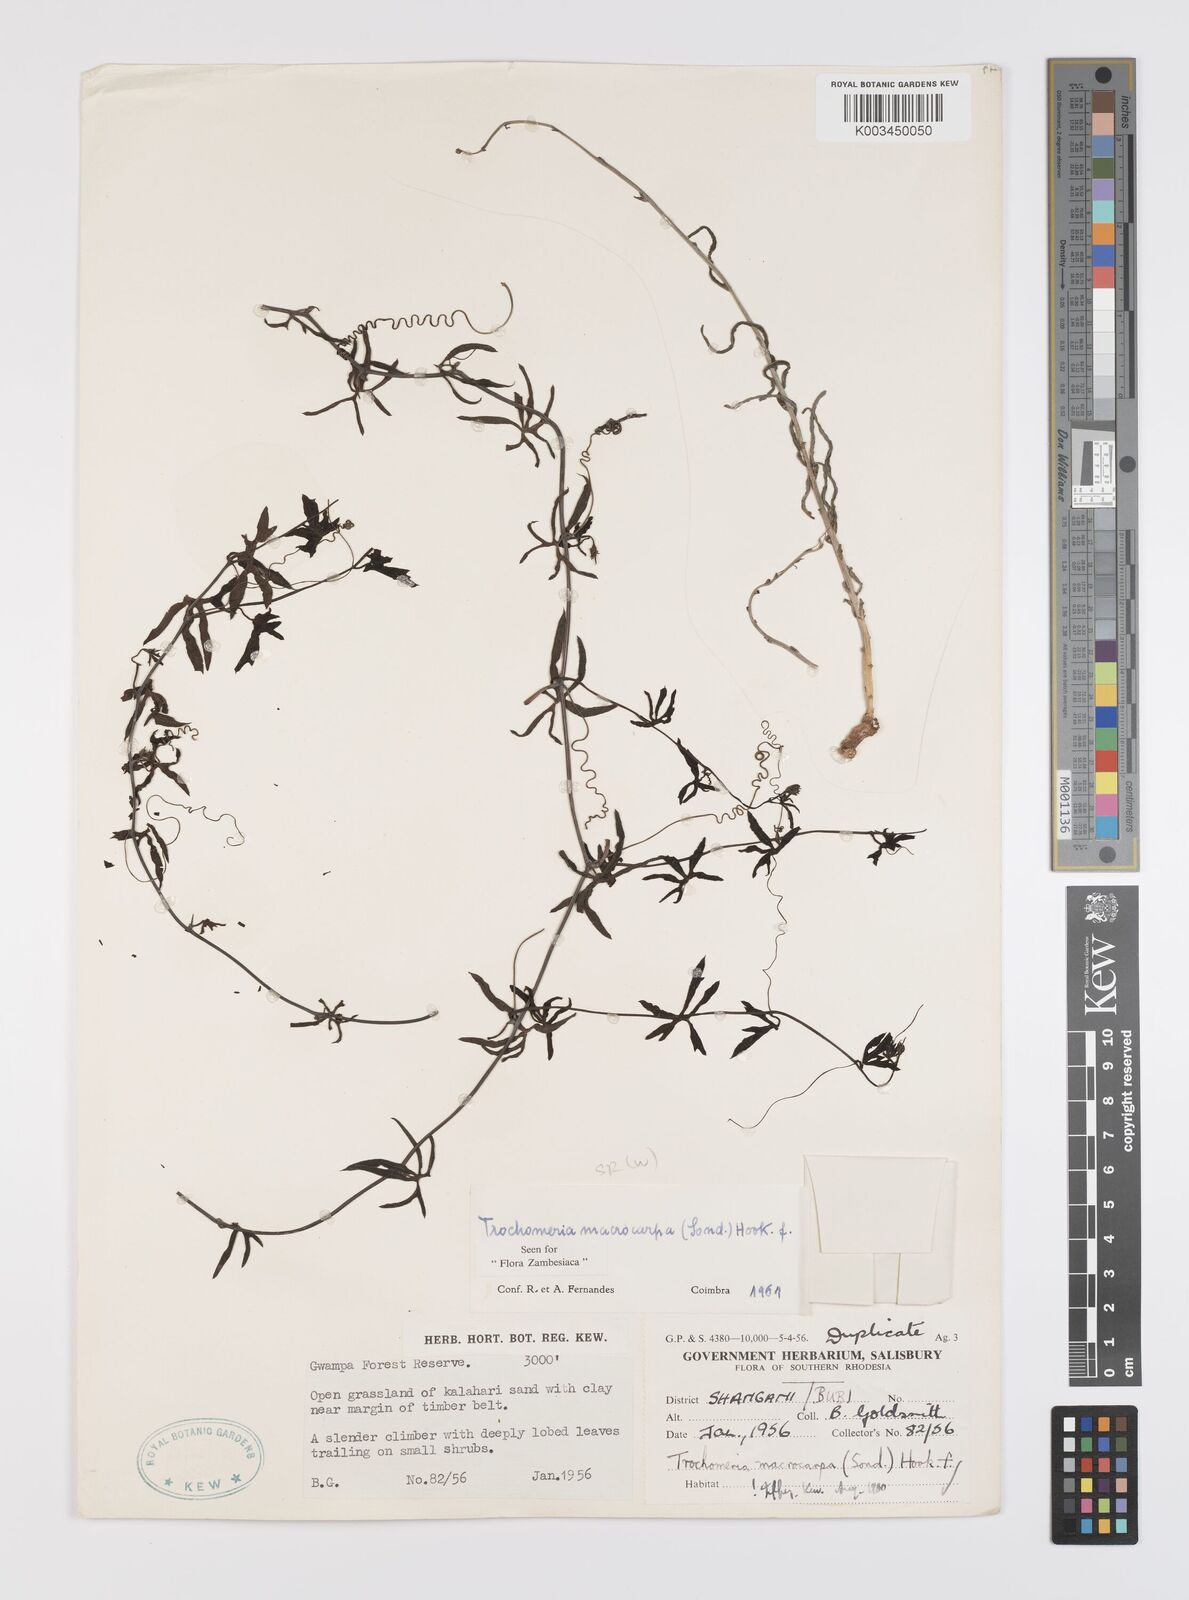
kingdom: Plantae
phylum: Tracheophyta
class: Magnoliopsida
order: Cucurbitales
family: Cucurbitaceae
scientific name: Cucurbitaceae
